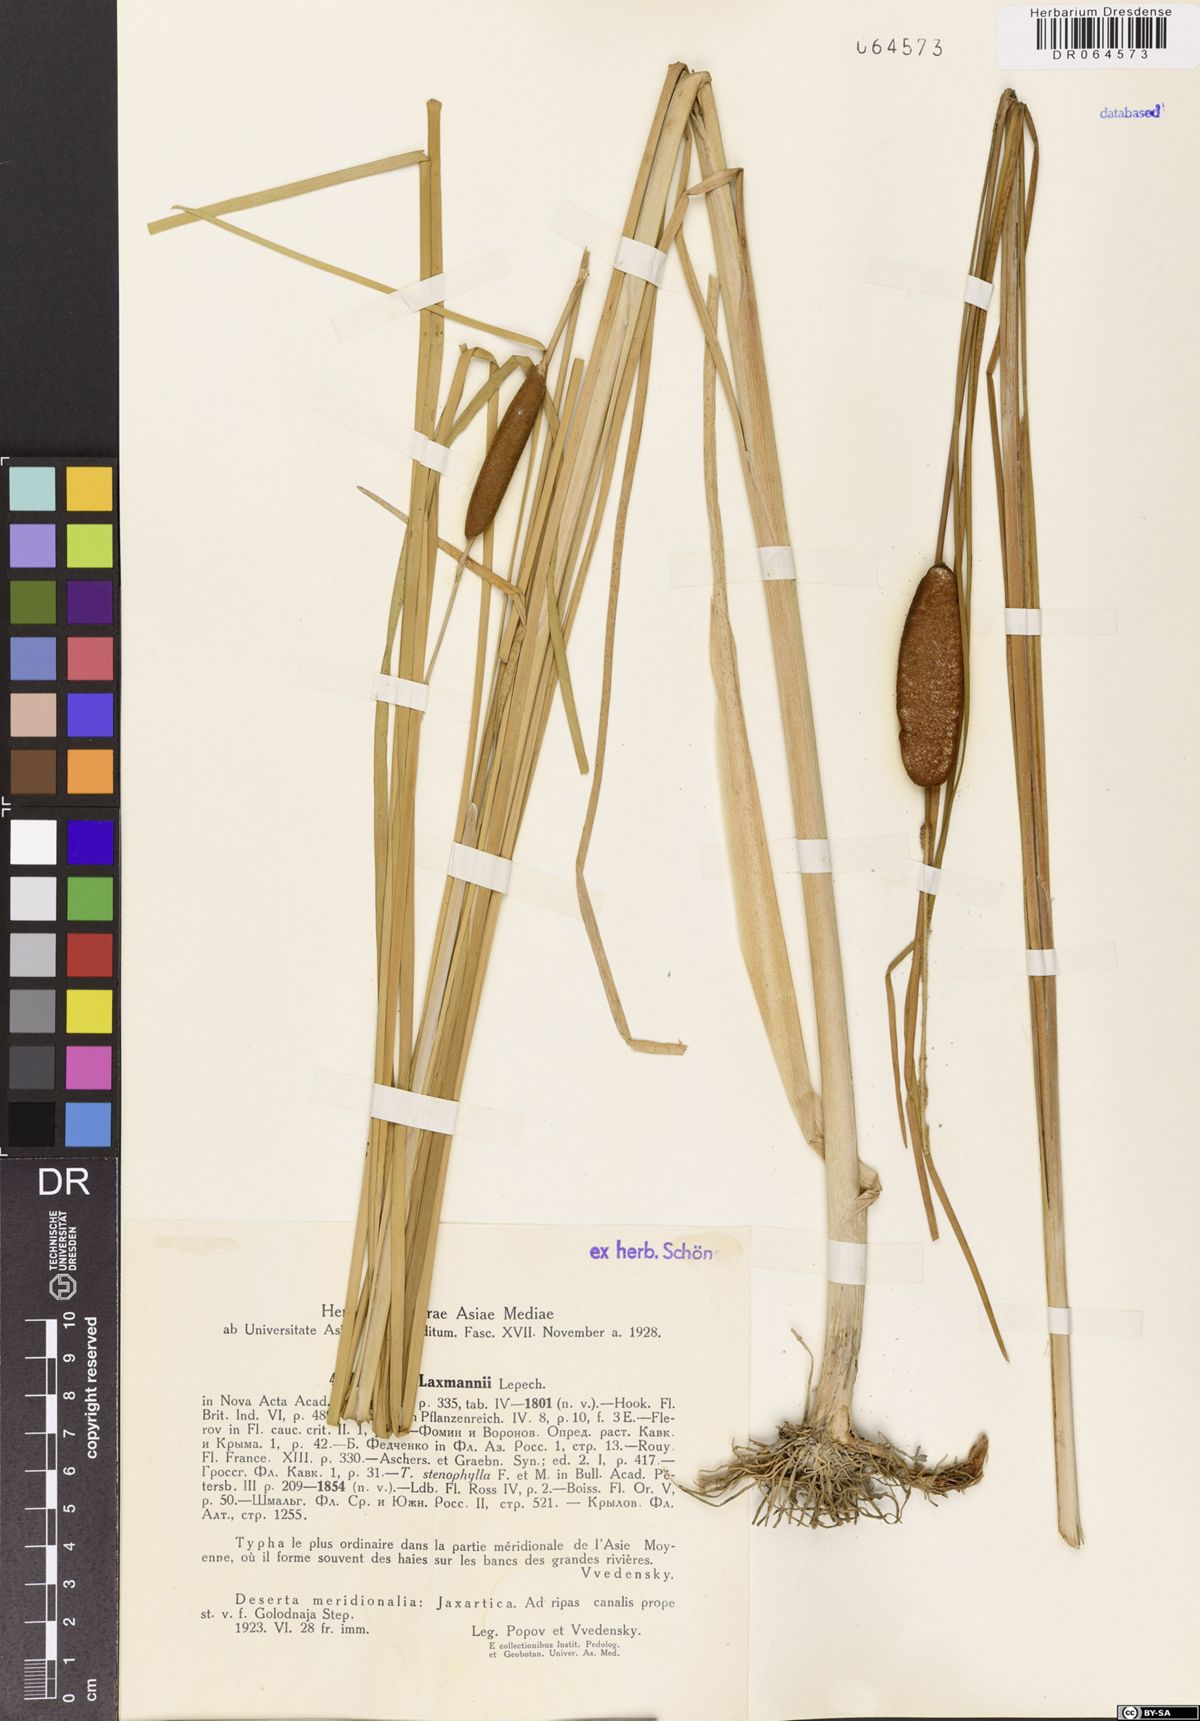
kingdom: Plantae
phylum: Tracheophyta
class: Liliopsida
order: Poales
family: Typhaceae
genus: Typha
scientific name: Typha laxmannii
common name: Laxman’s bulrush
